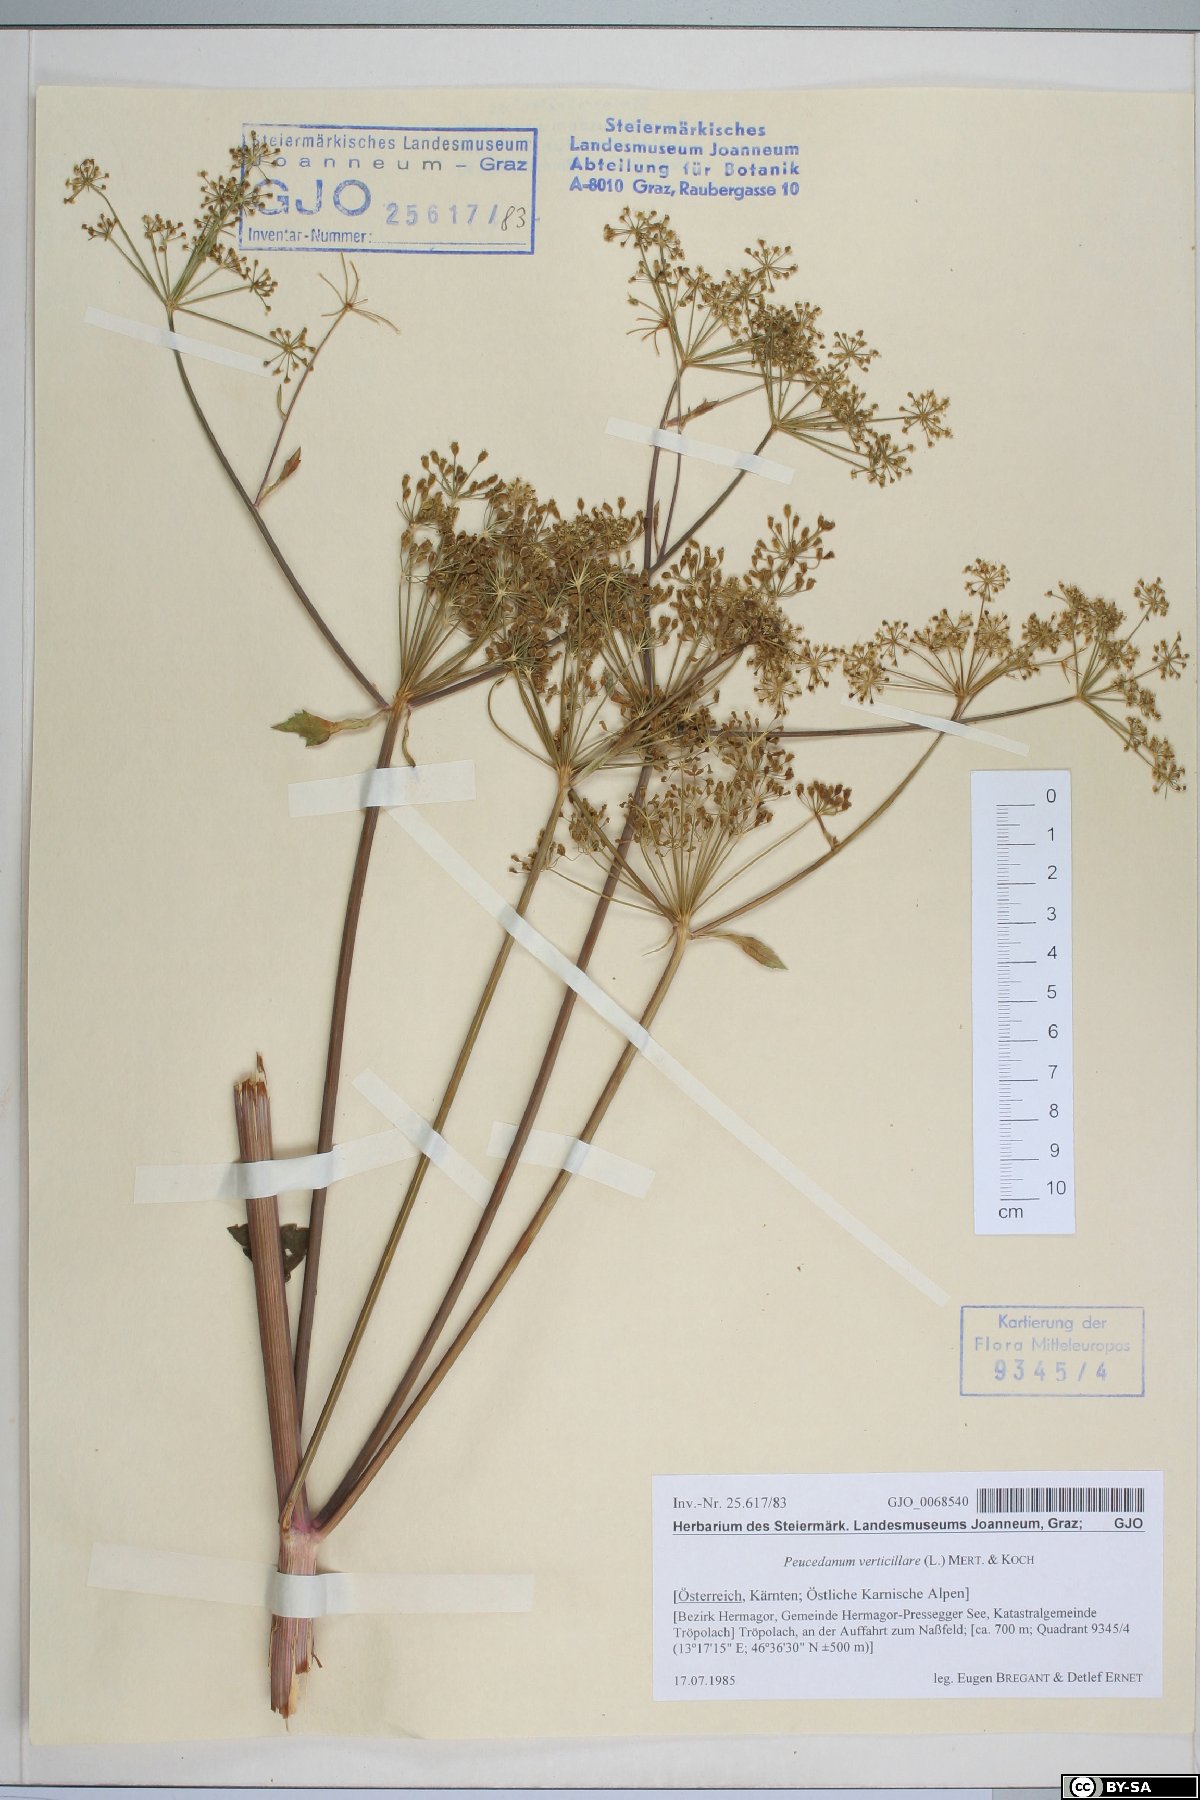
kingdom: Plantae
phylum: Tracheophyta
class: Magnoliopsida
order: Apiales
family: Apiaceae
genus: Tommasinia
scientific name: Tommasinia altissima
